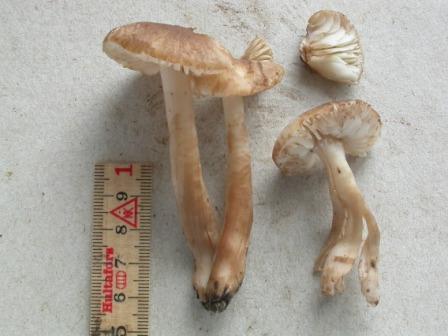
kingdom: Fungi
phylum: Basidiomycota
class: Agaricomycetes
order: Agaricales
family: Hygrophoraceae
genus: Hygrocybe
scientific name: Hygrocybe ingrata
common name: Jensens vokshat
